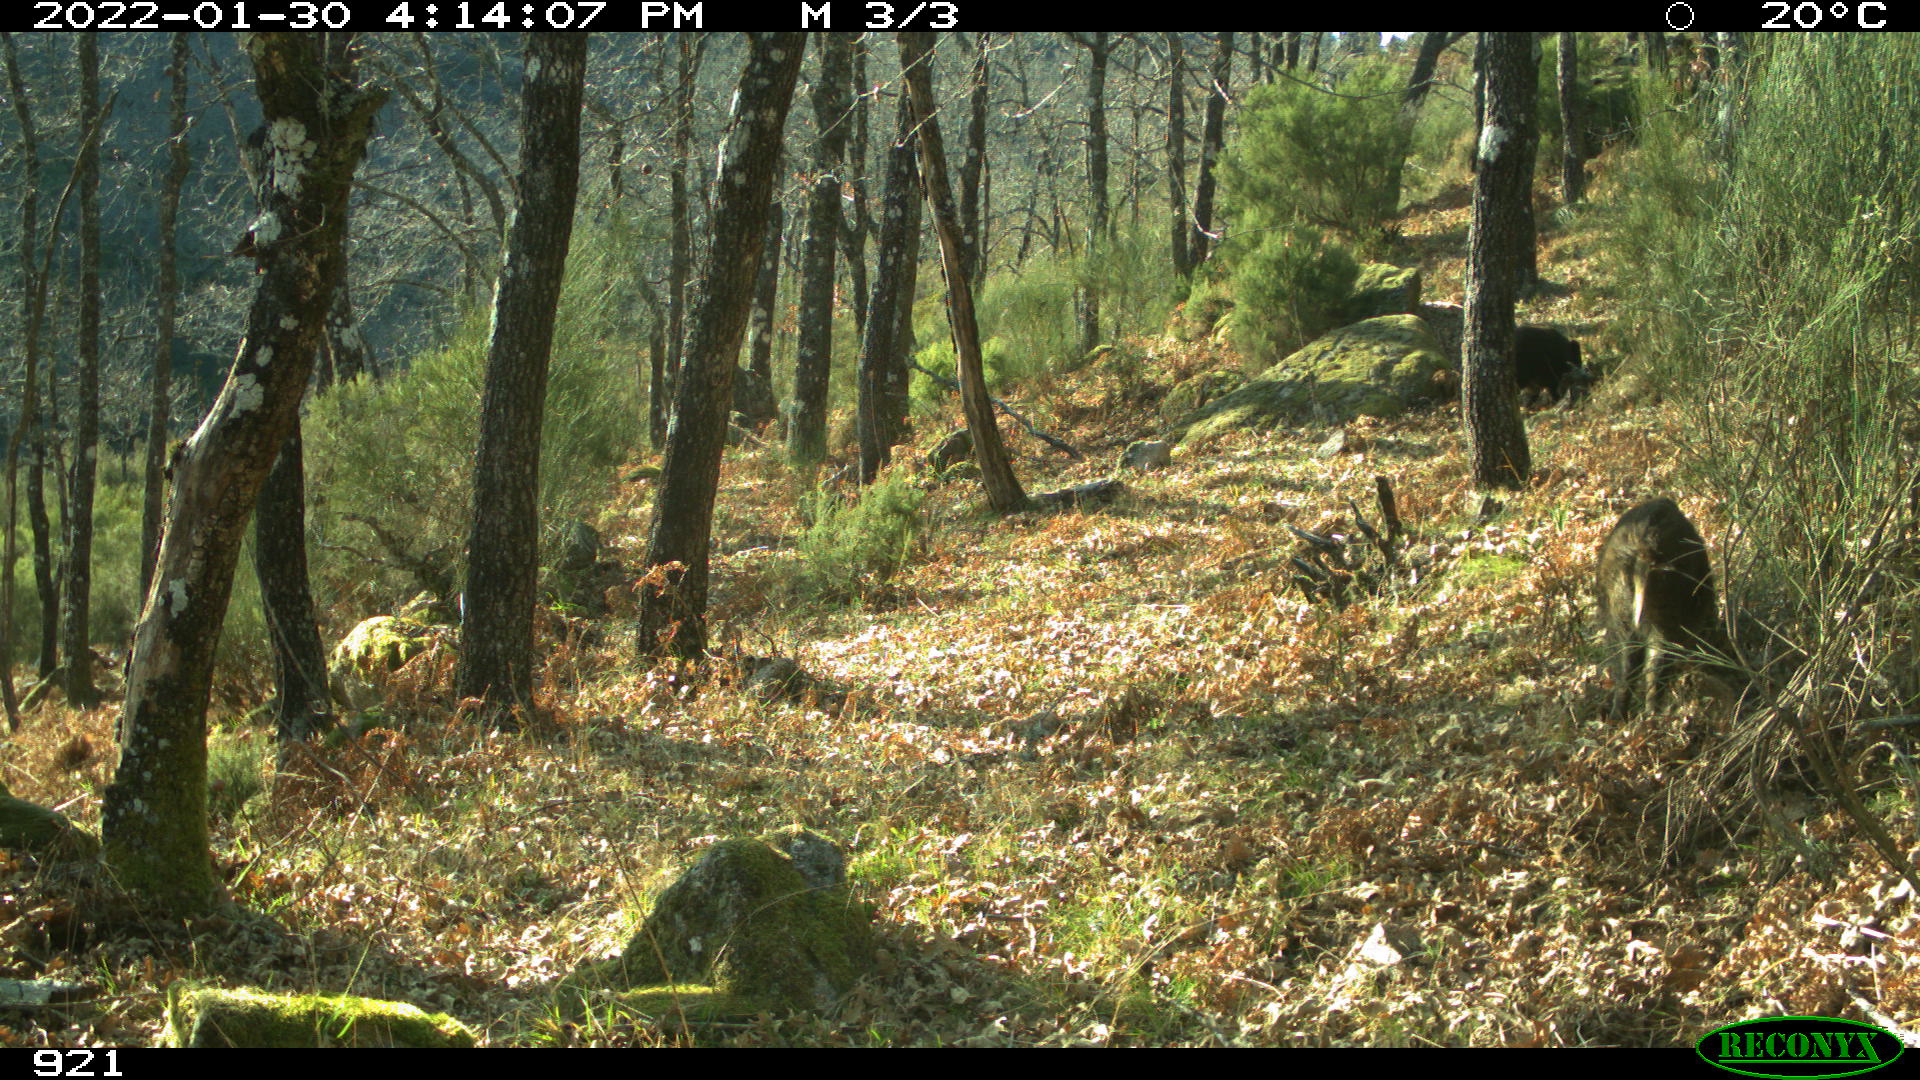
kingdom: Animalia
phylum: Chordata
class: Mammalia
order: Artiodactyla
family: Suidae
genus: Sus
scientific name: Sus scrofa
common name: Wild boar
